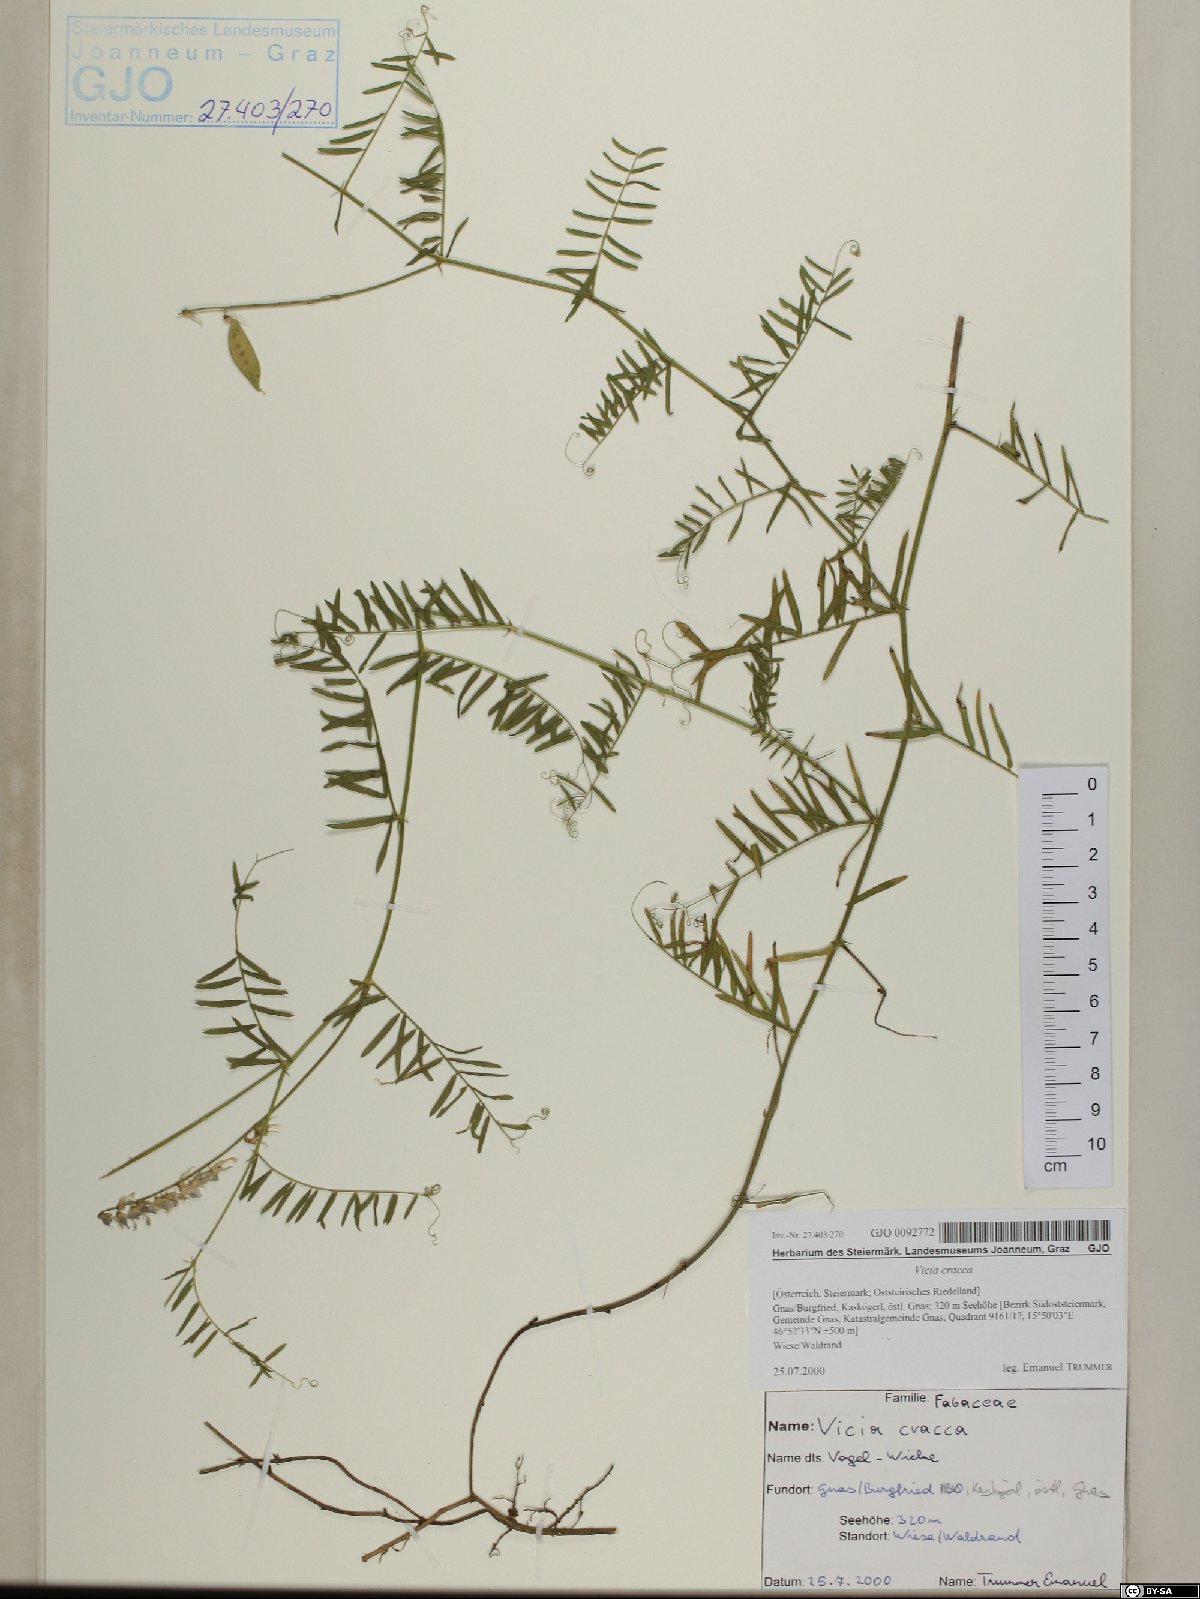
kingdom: Plantae
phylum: Tracheophyta
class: Magnoliopsida
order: Fabales
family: Fabaceae
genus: Vicia
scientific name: Vicia cracca
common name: Bird vetch
